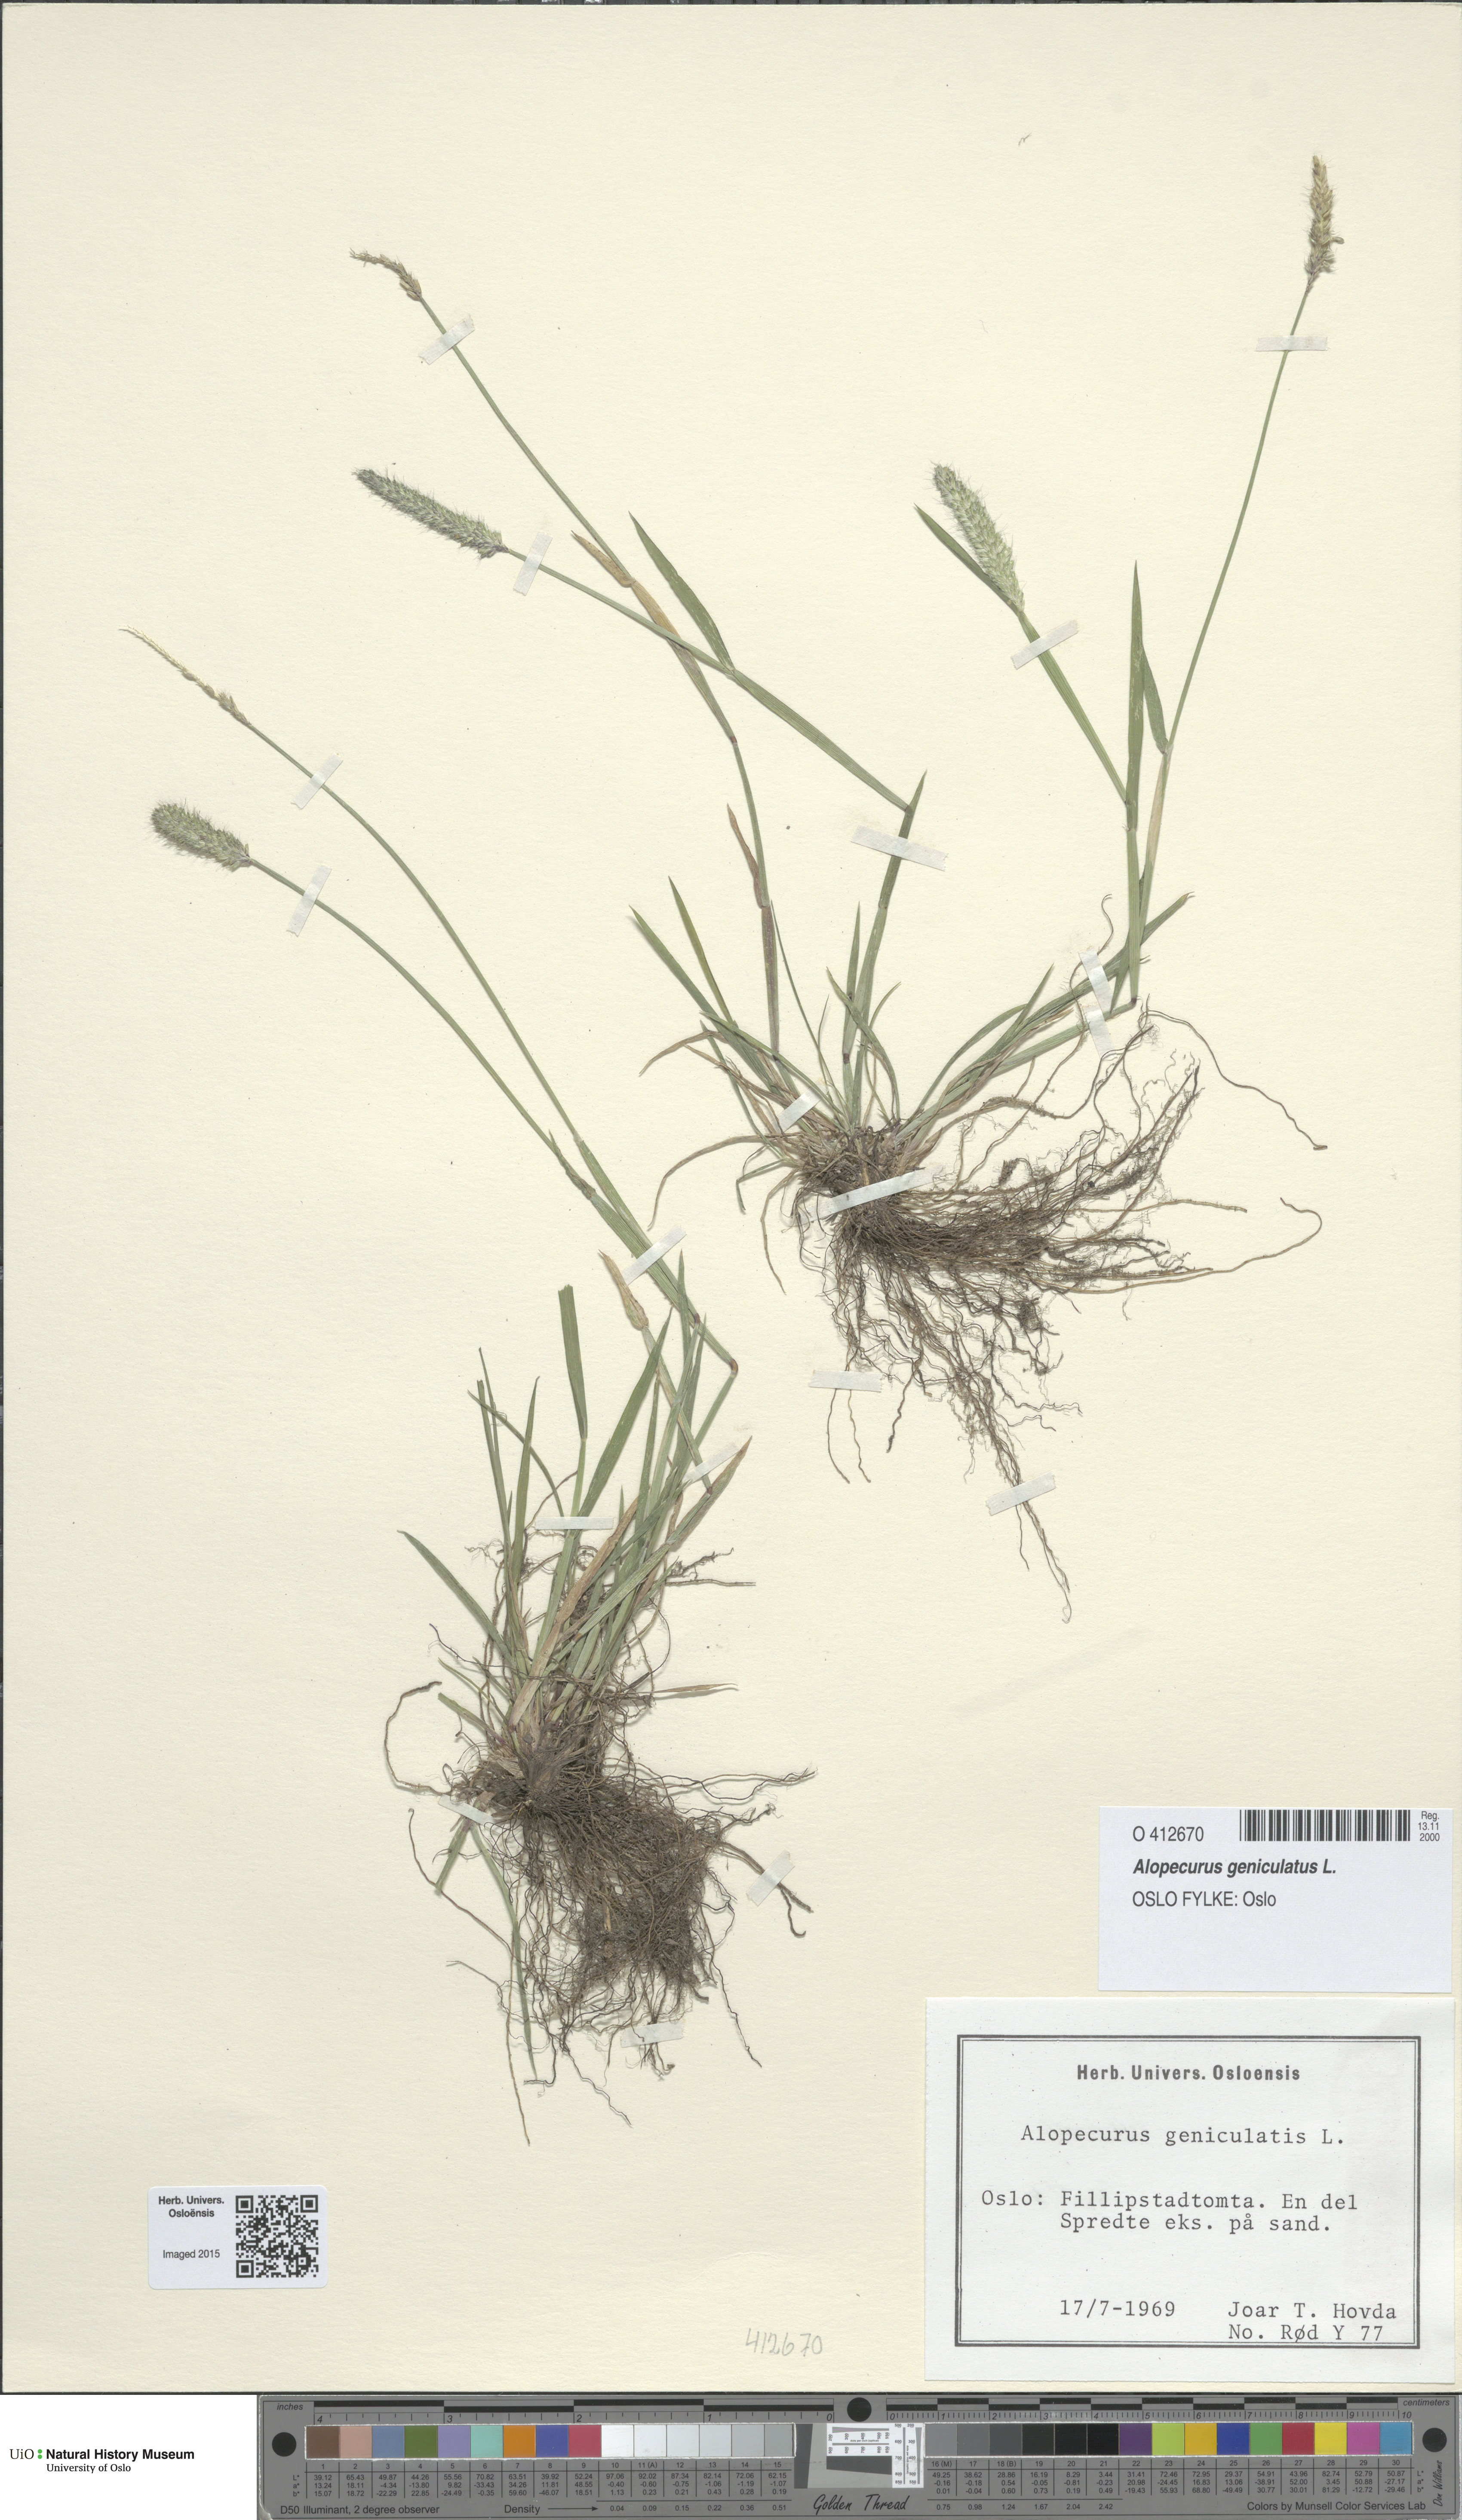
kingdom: Plantae
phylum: Tracheophyta
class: Liliopsida
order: Poales
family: Poaceae
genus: Alopecurus
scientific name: Alopecurus geniculatus
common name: Water foxtail
